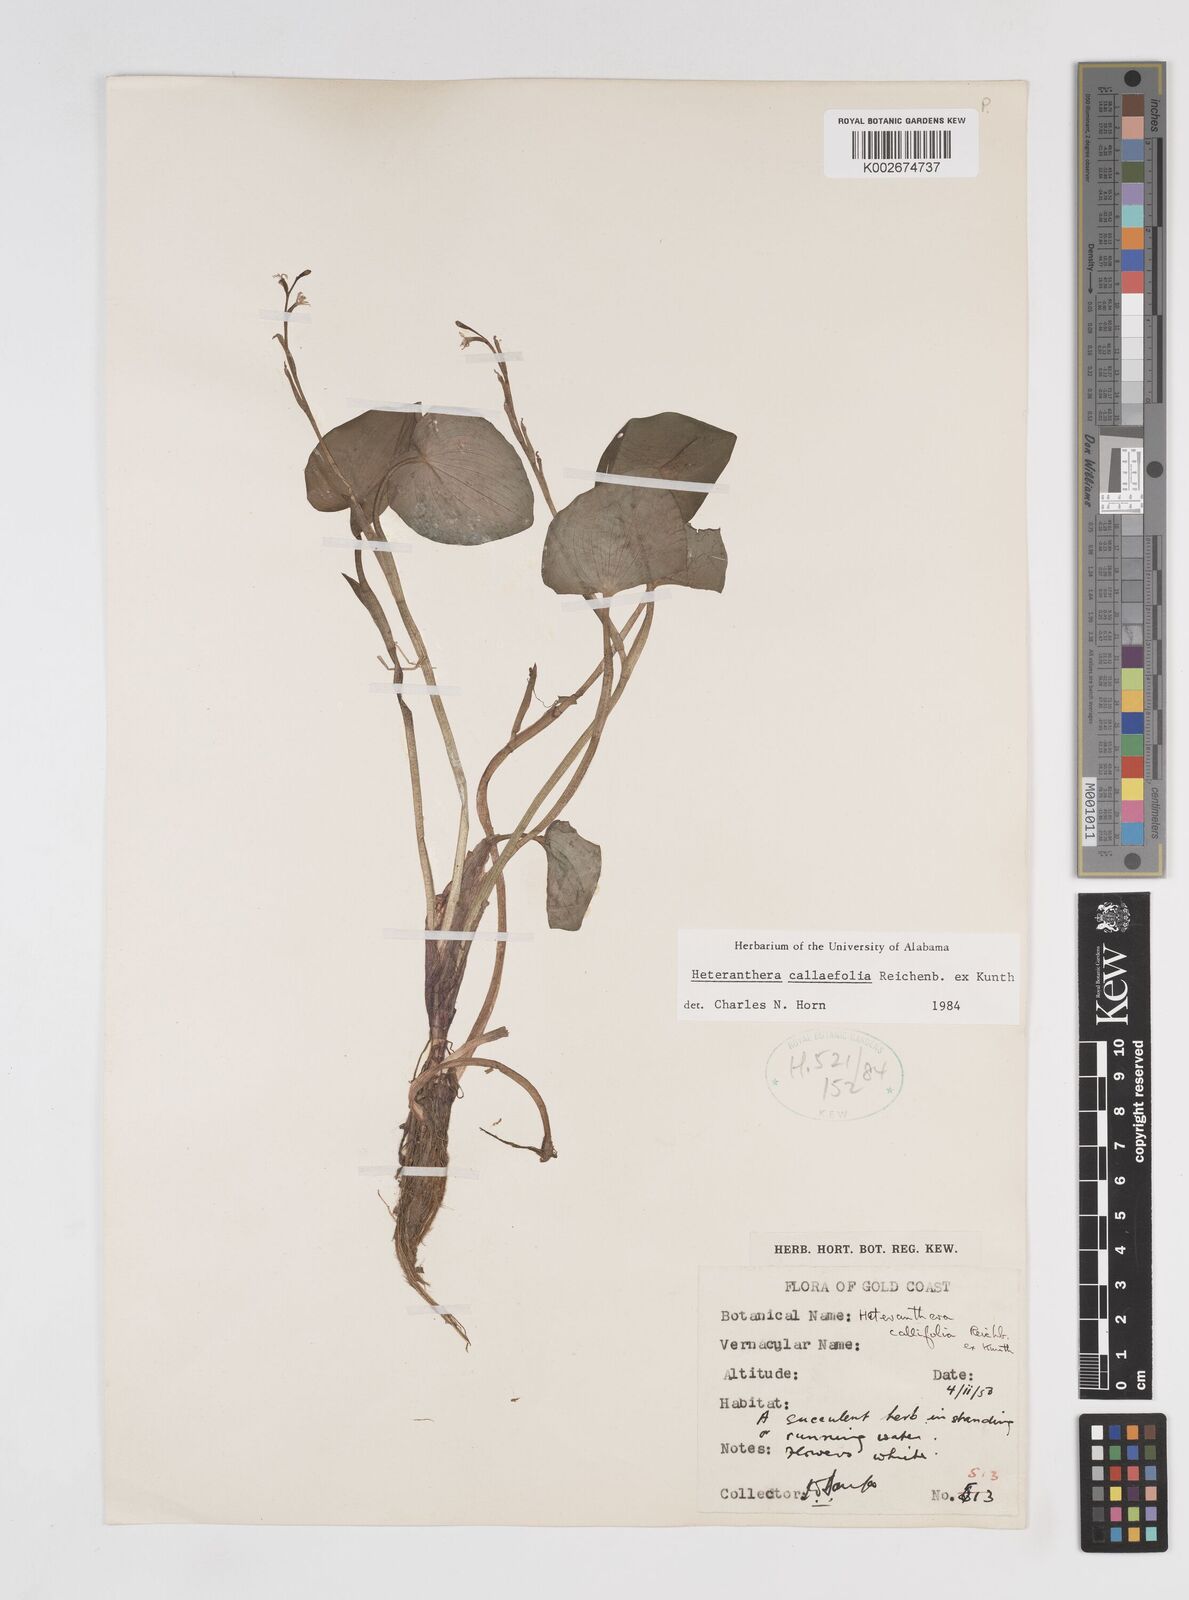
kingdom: Plantae
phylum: Tracheophyta
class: Liliopsida
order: Commelinales
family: Pontederiaceae
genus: Heteranthera
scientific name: Heteranthera callifolia
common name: Mud plantain
